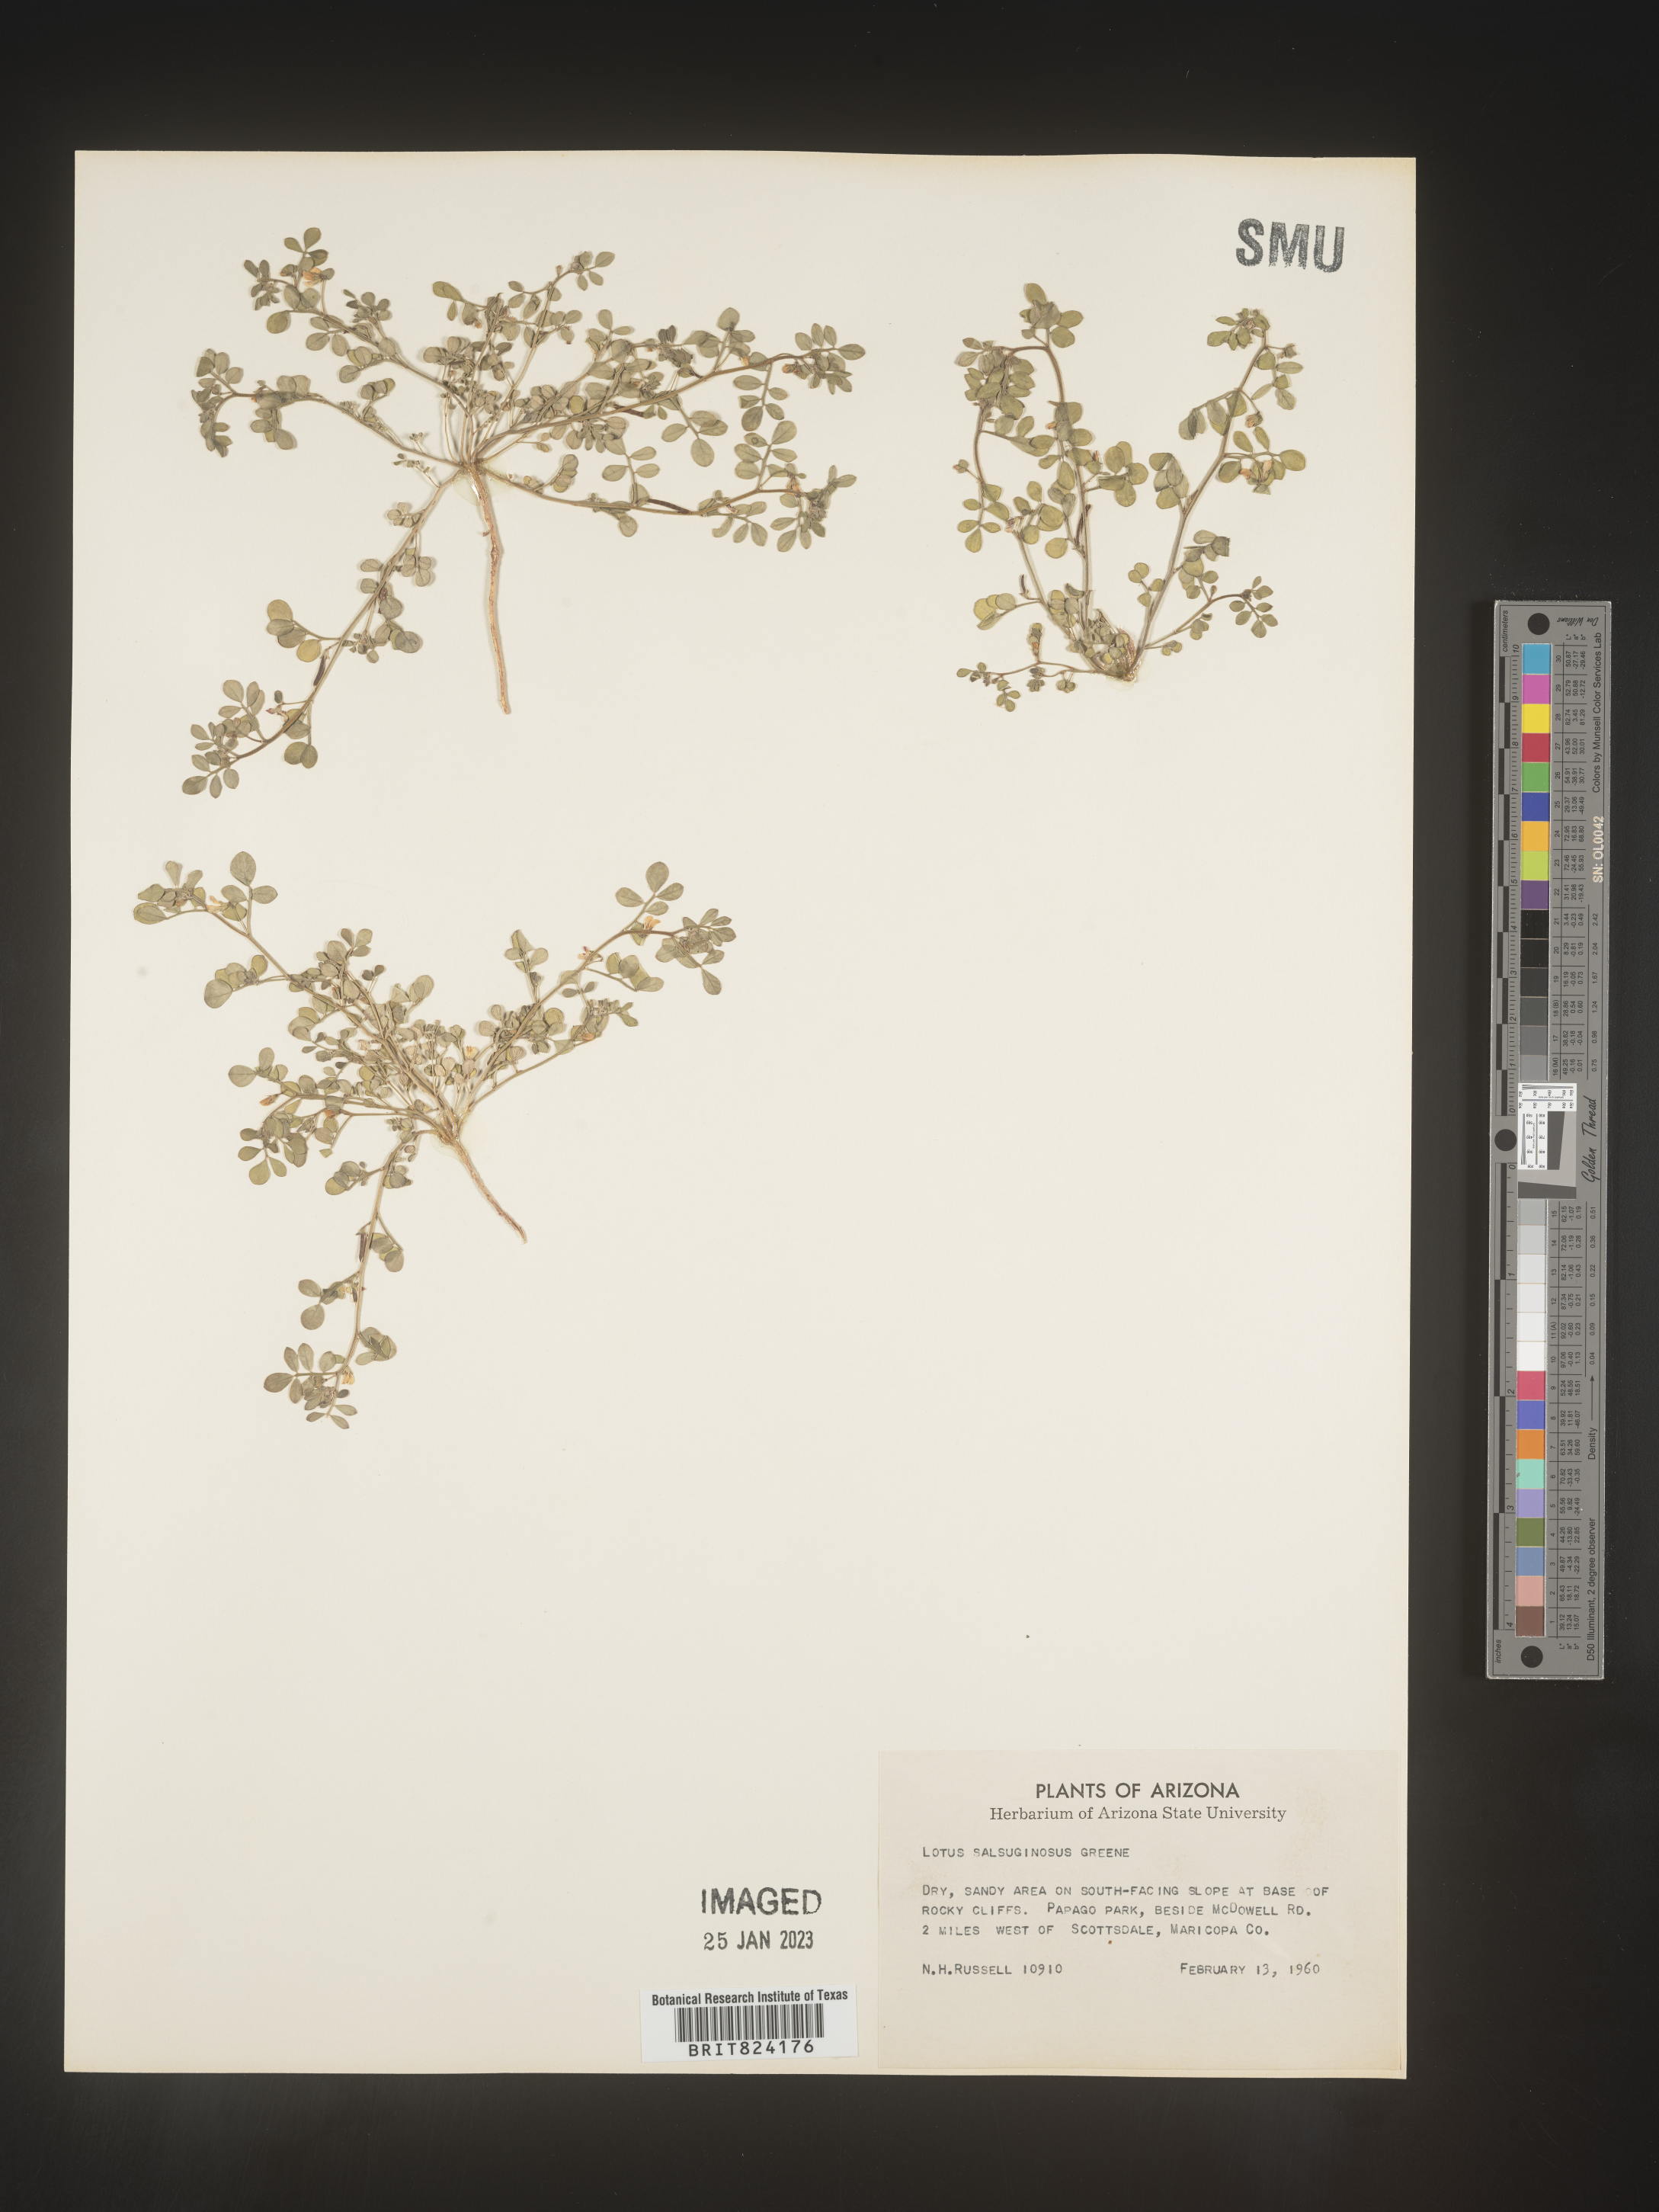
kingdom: Plantae
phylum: Tracheophyta
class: Magnoliopsida
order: Fabales
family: Fabaceae
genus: Lotus
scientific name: Lotus
